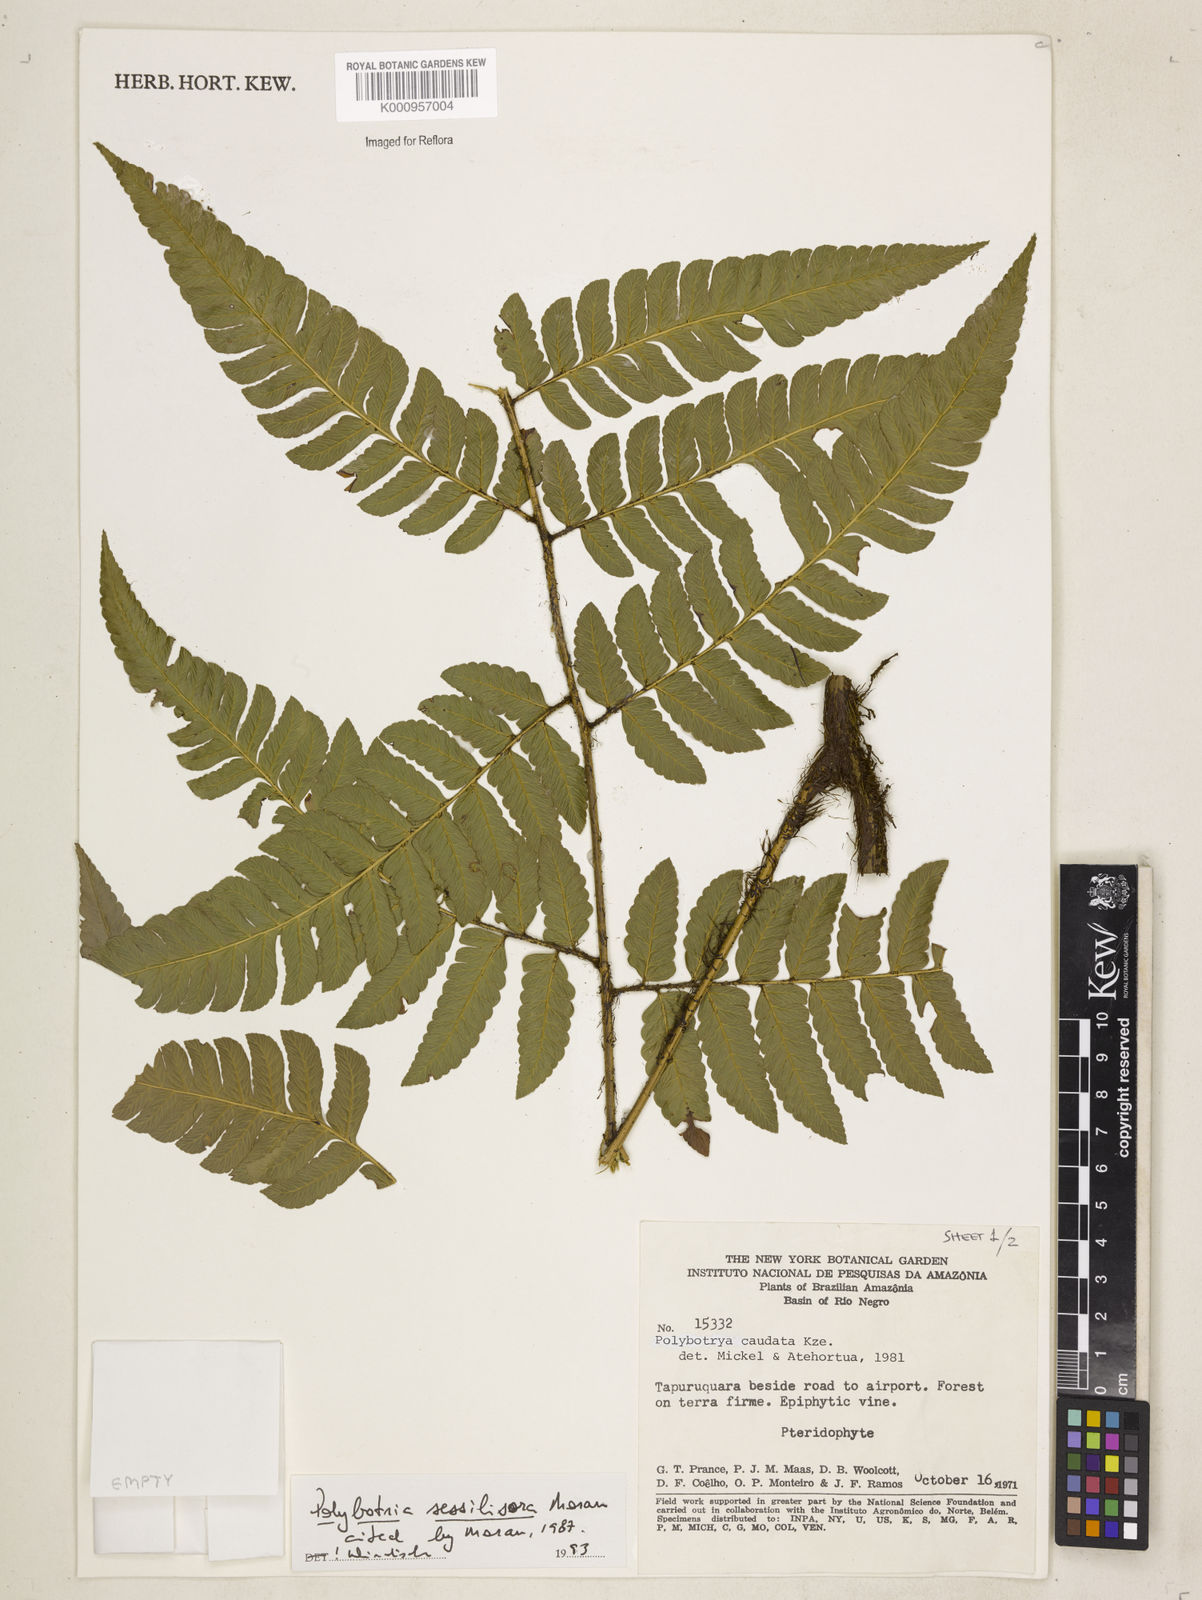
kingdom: Plantae
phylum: Tracheophyta
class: Polypodiopsida
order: Polypodiales
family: Dryopteridaceae
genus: Polybotrya
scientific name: Polybotrya sessilisora
